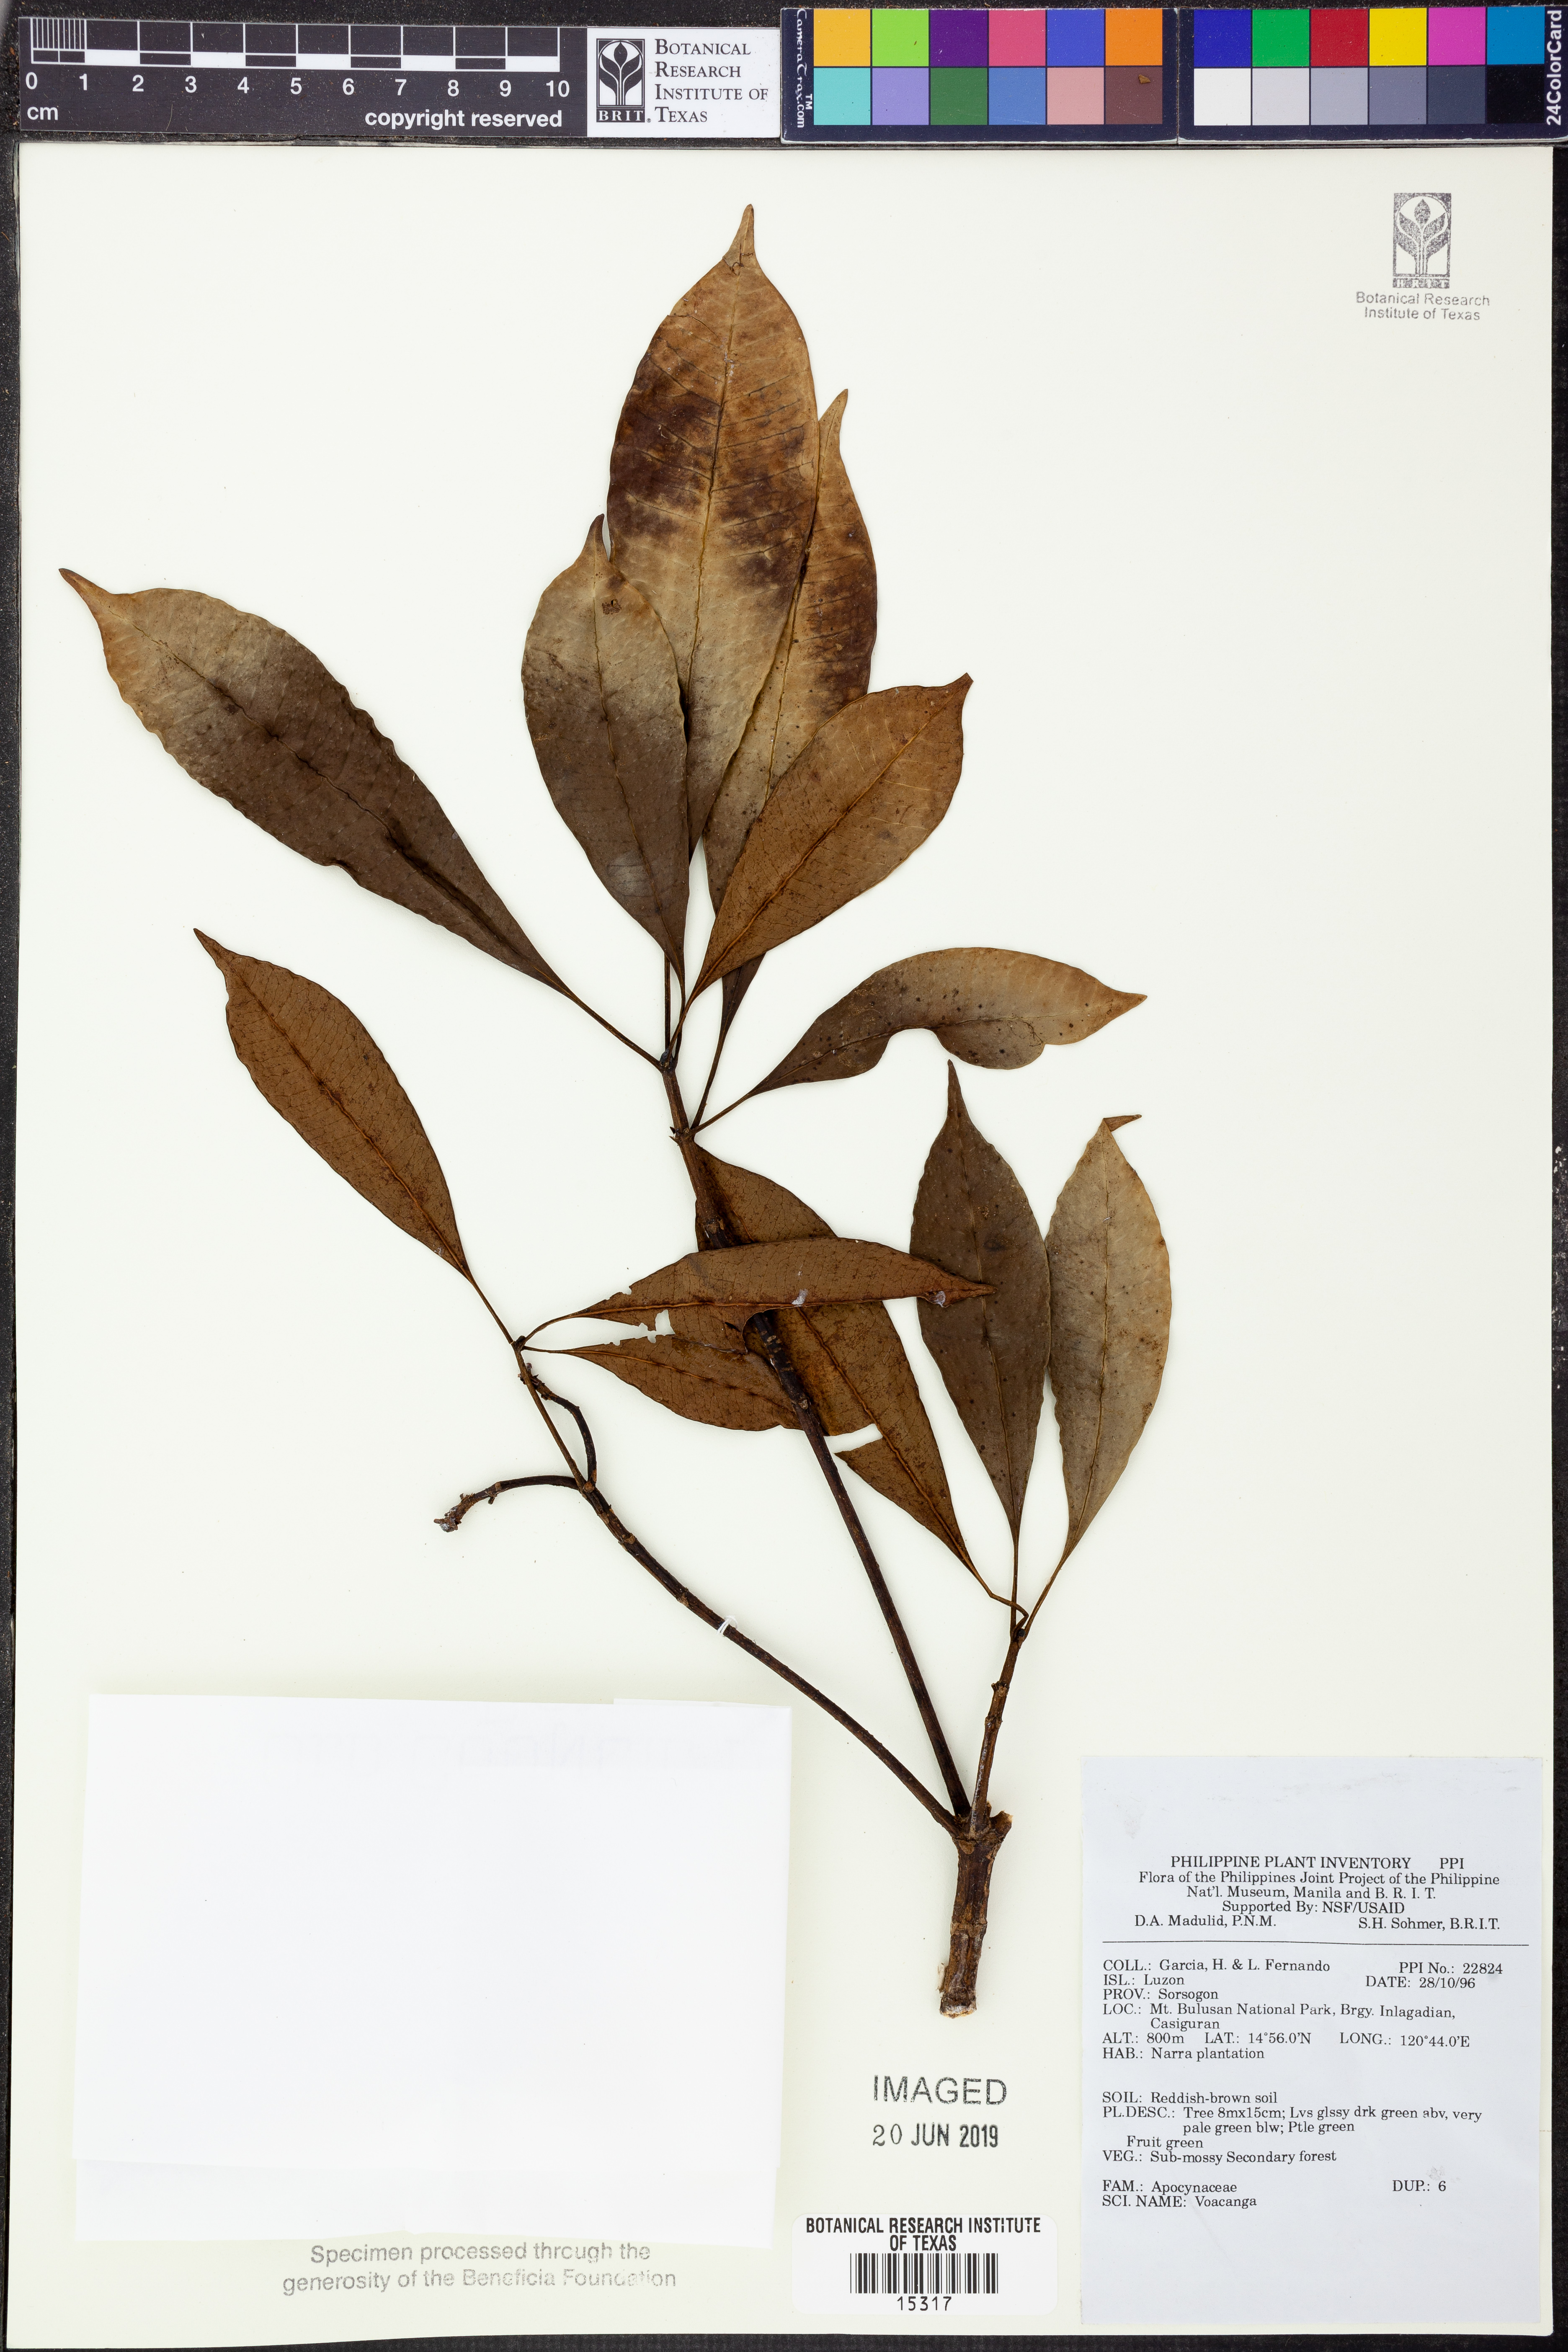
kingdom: Plantae
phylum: Tracheophyta
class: Magnoliopsida
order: Gentianales
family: Apocynaceae
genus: Voacanga
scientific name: Voacanga
